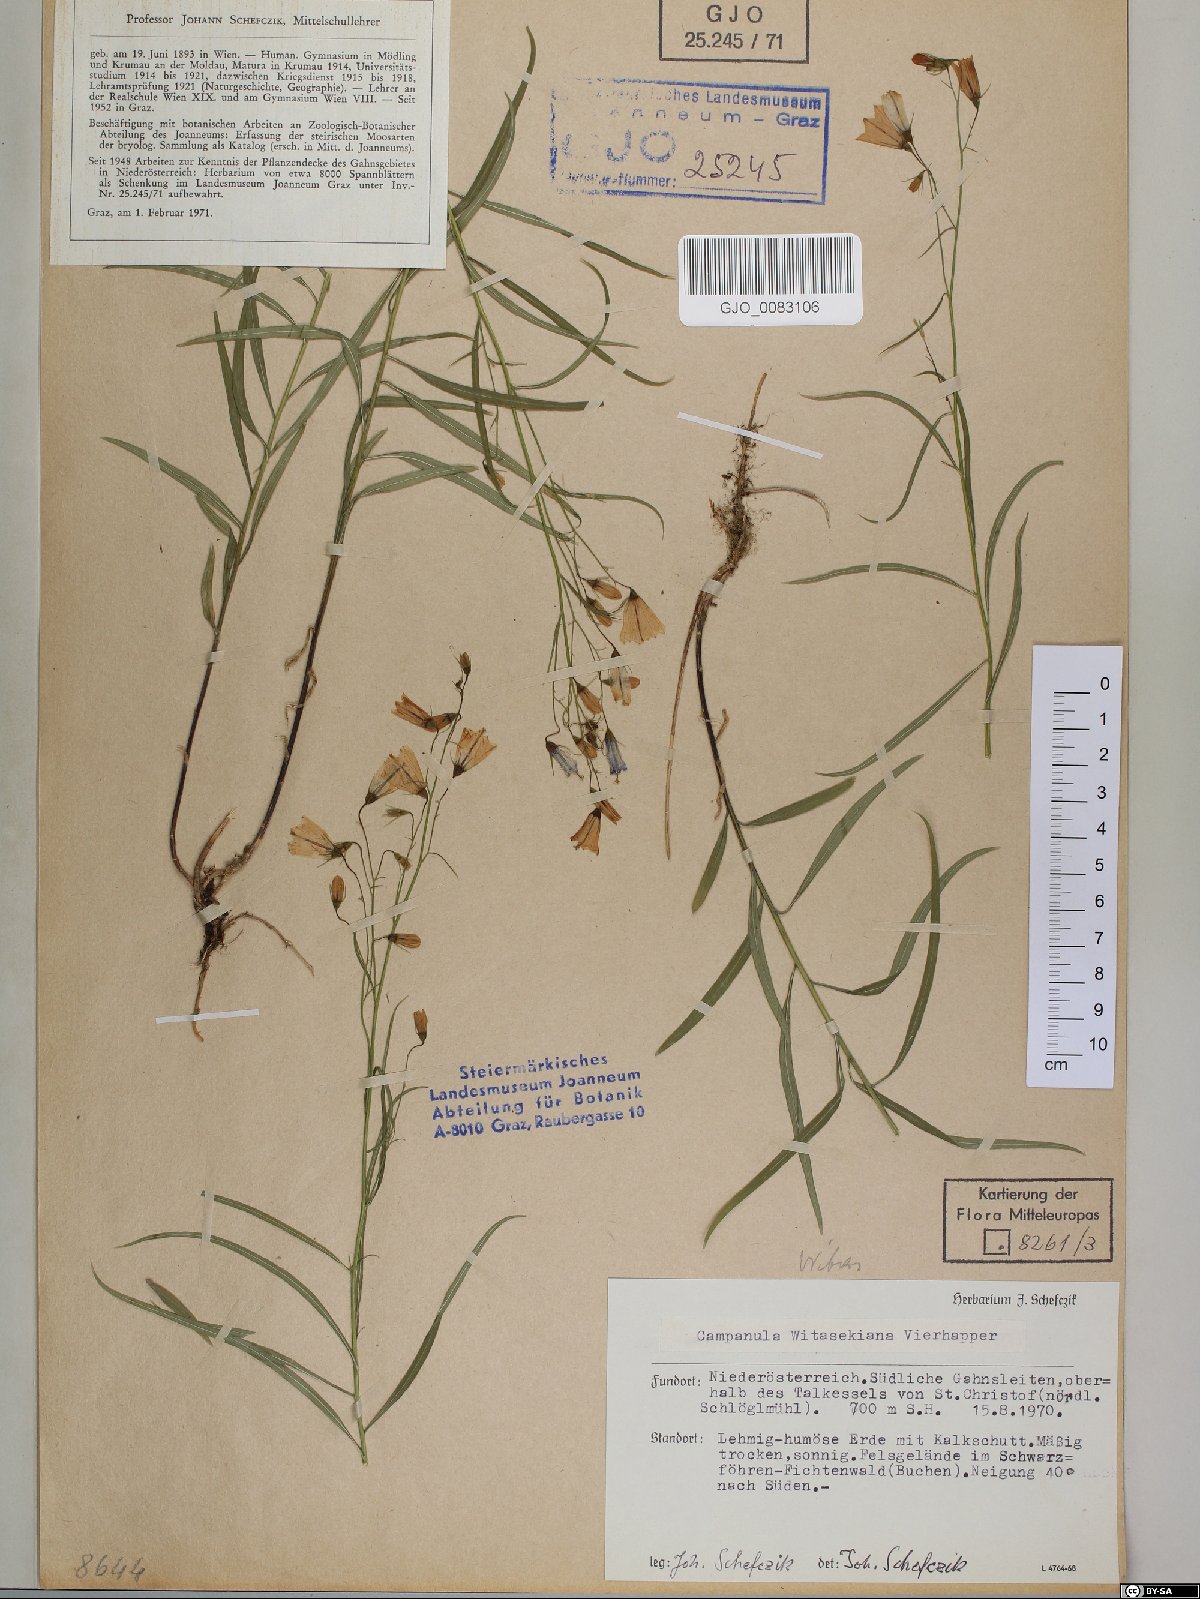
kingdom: Plantae
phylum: Tracheophyta
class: Magnoliopsida
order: Asterales
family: Campanulaceae
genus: Campanula
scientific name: Campanula witasekiana
